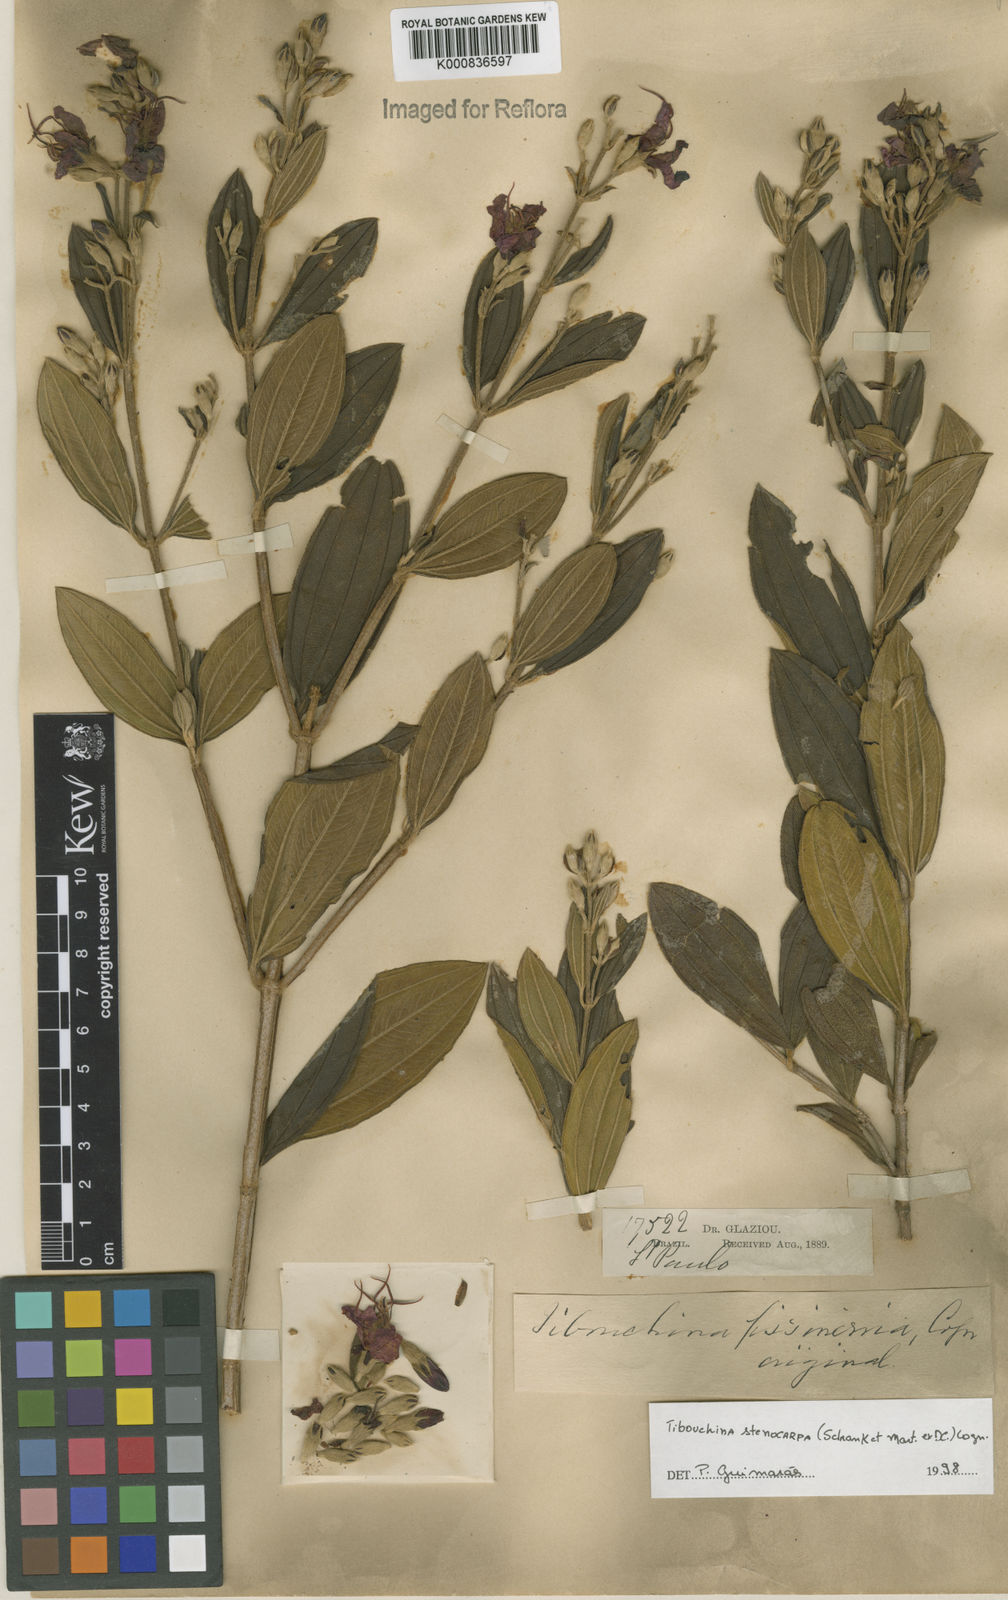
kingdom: Plantae
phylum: Tracheophyta
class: Magnoliopsida
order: Myrtales
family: Melastomataceae
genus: Pleroma
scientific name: Pleroma stenocarpum
